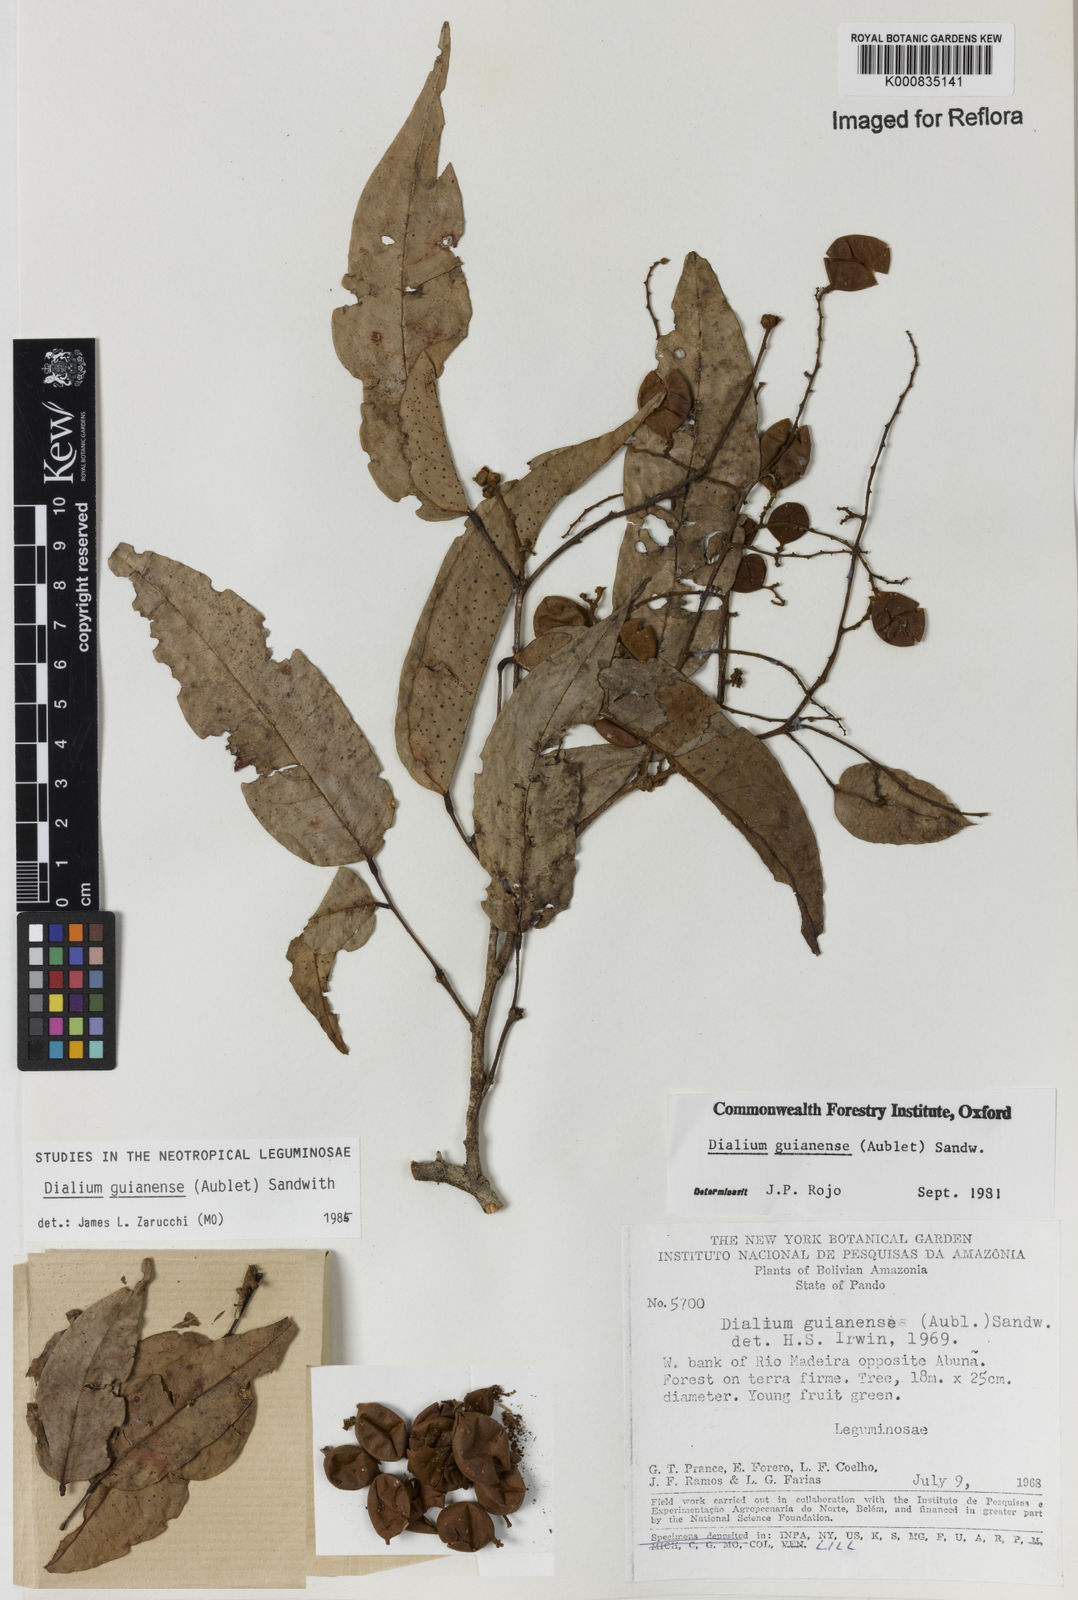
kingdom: Plantae
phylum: Tracheophyta
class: Magnoliopsida
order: Fabales
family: Fabaceae
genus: Dialium
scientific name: Dialium guianense
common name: Ironwood
